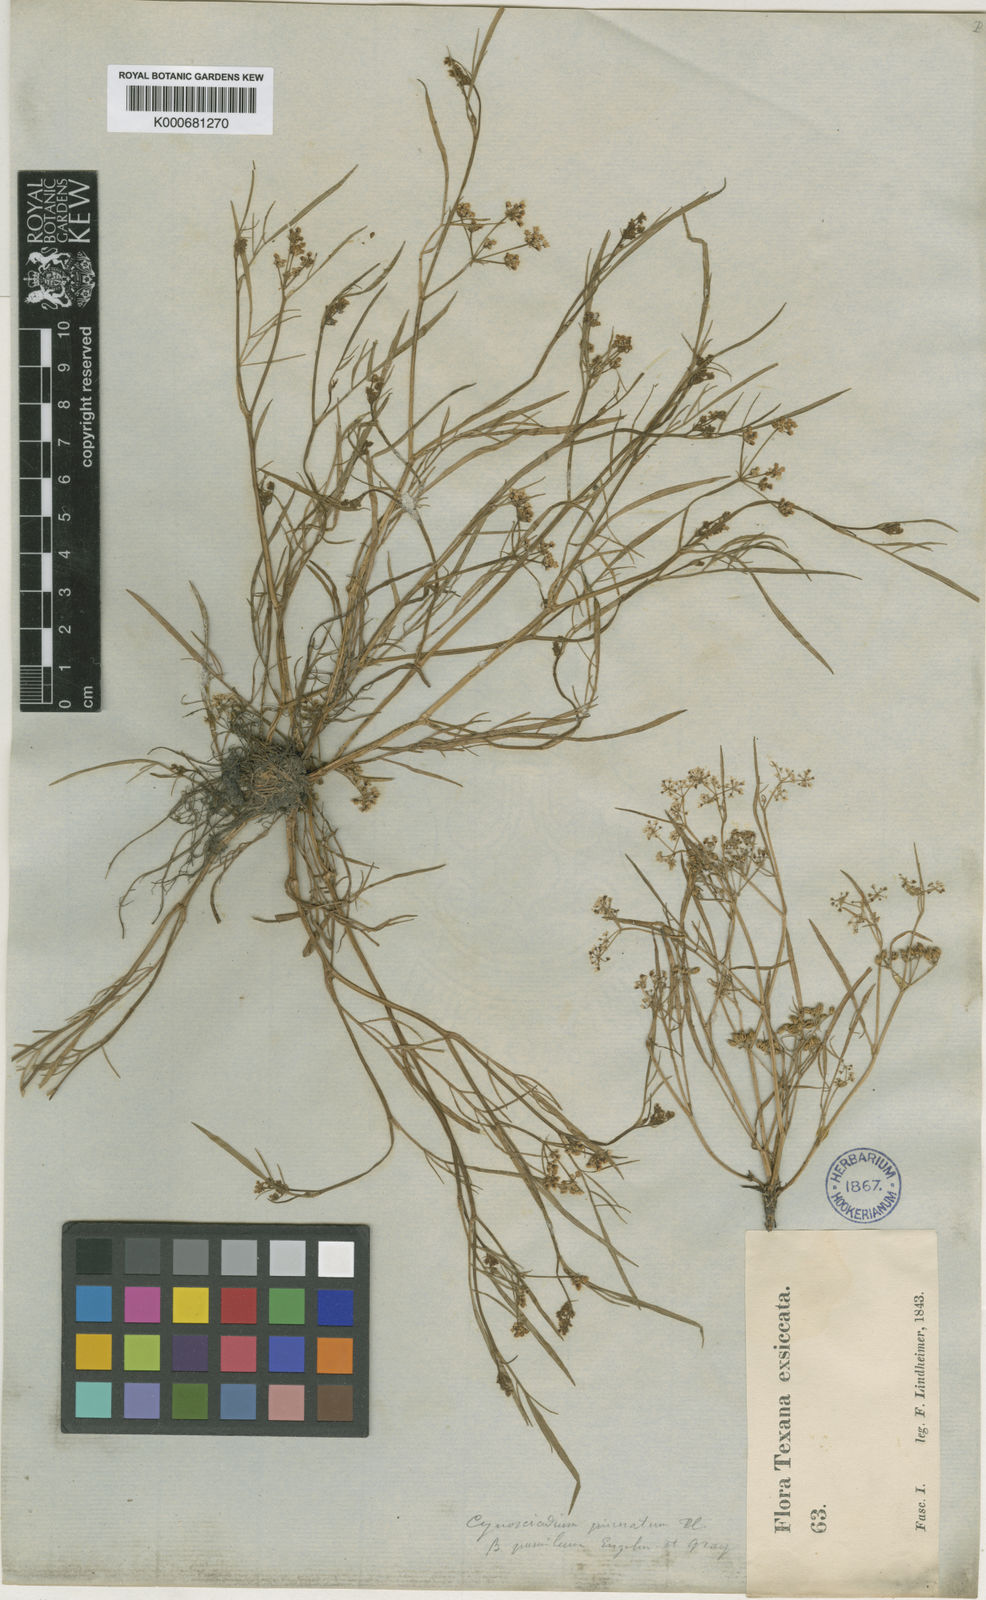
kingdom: Plantae
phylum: Tracheophyta
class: Magnoliopsida
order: Apiales
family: Apiaceae
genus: Limnosciadium
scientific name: Limnosciadium pinnatum
